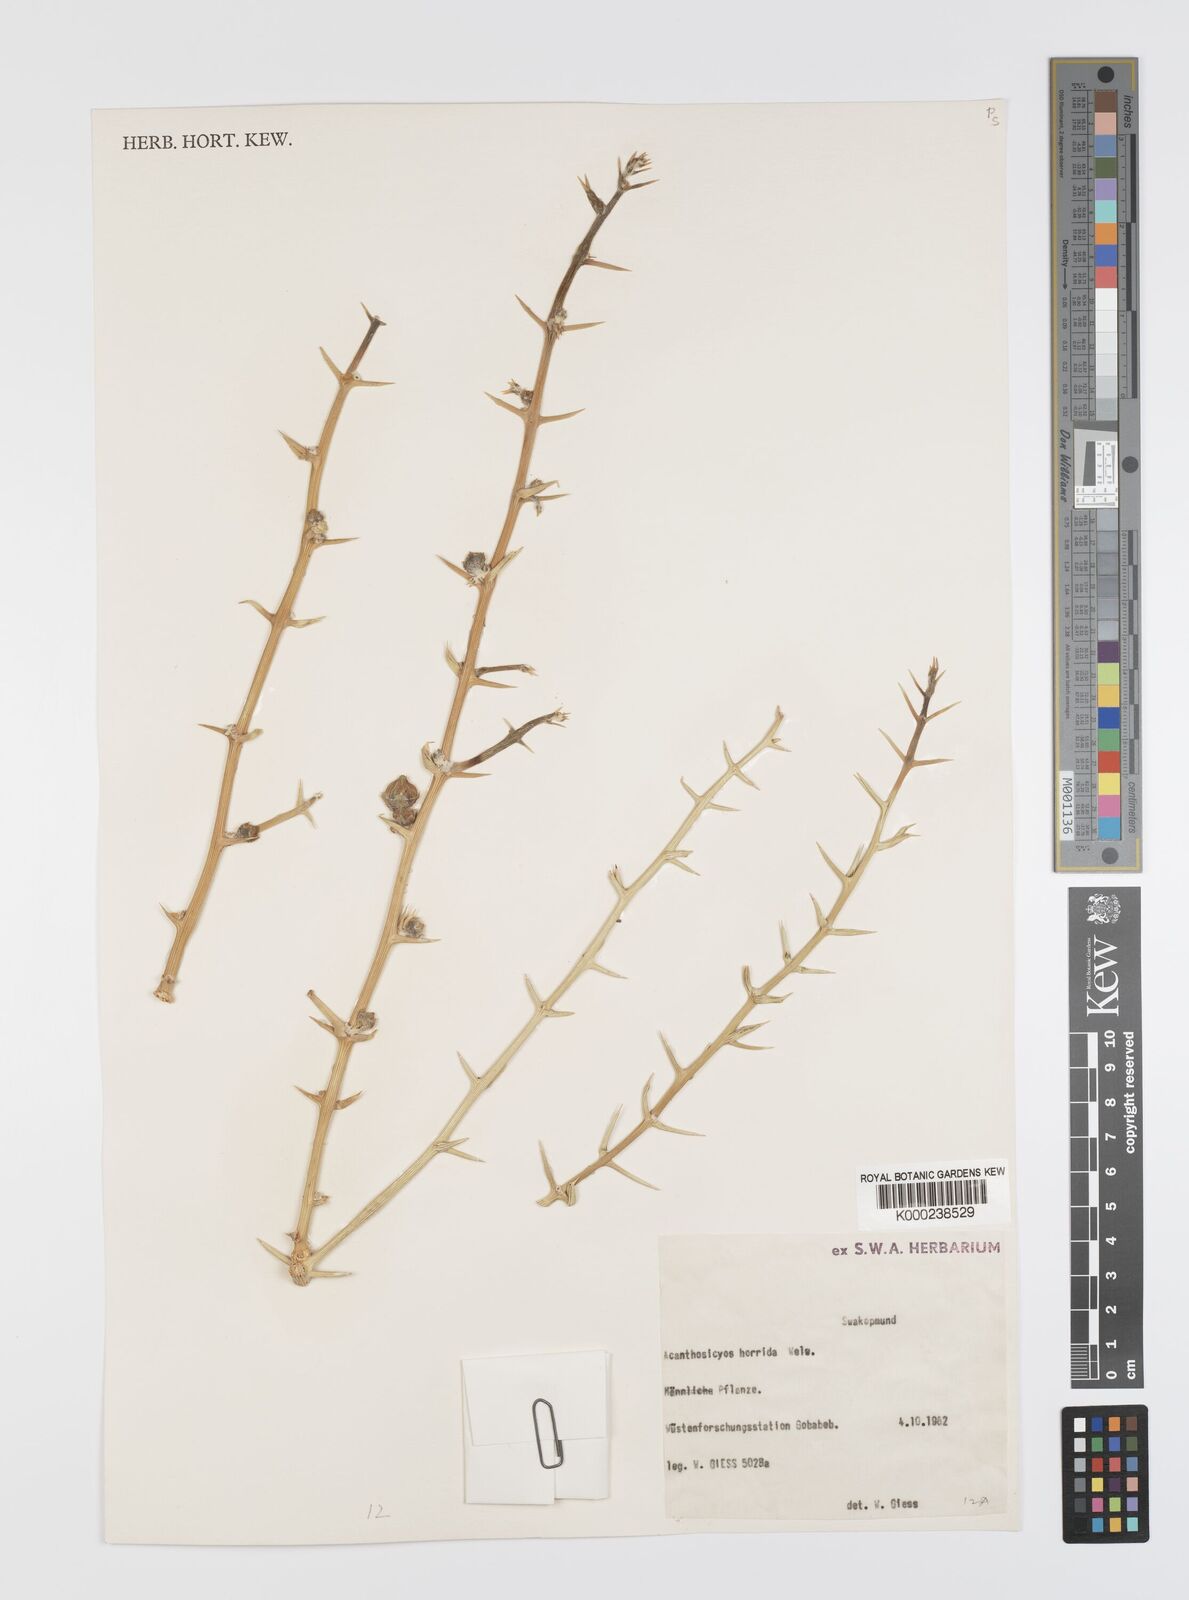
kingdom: Plantae
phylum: Tracheophyta
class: Magnoliopsida
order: Cucurbitales
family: Cucurbitaceae
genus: Acanthosicyos
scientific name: Acanthosicyos horridus
